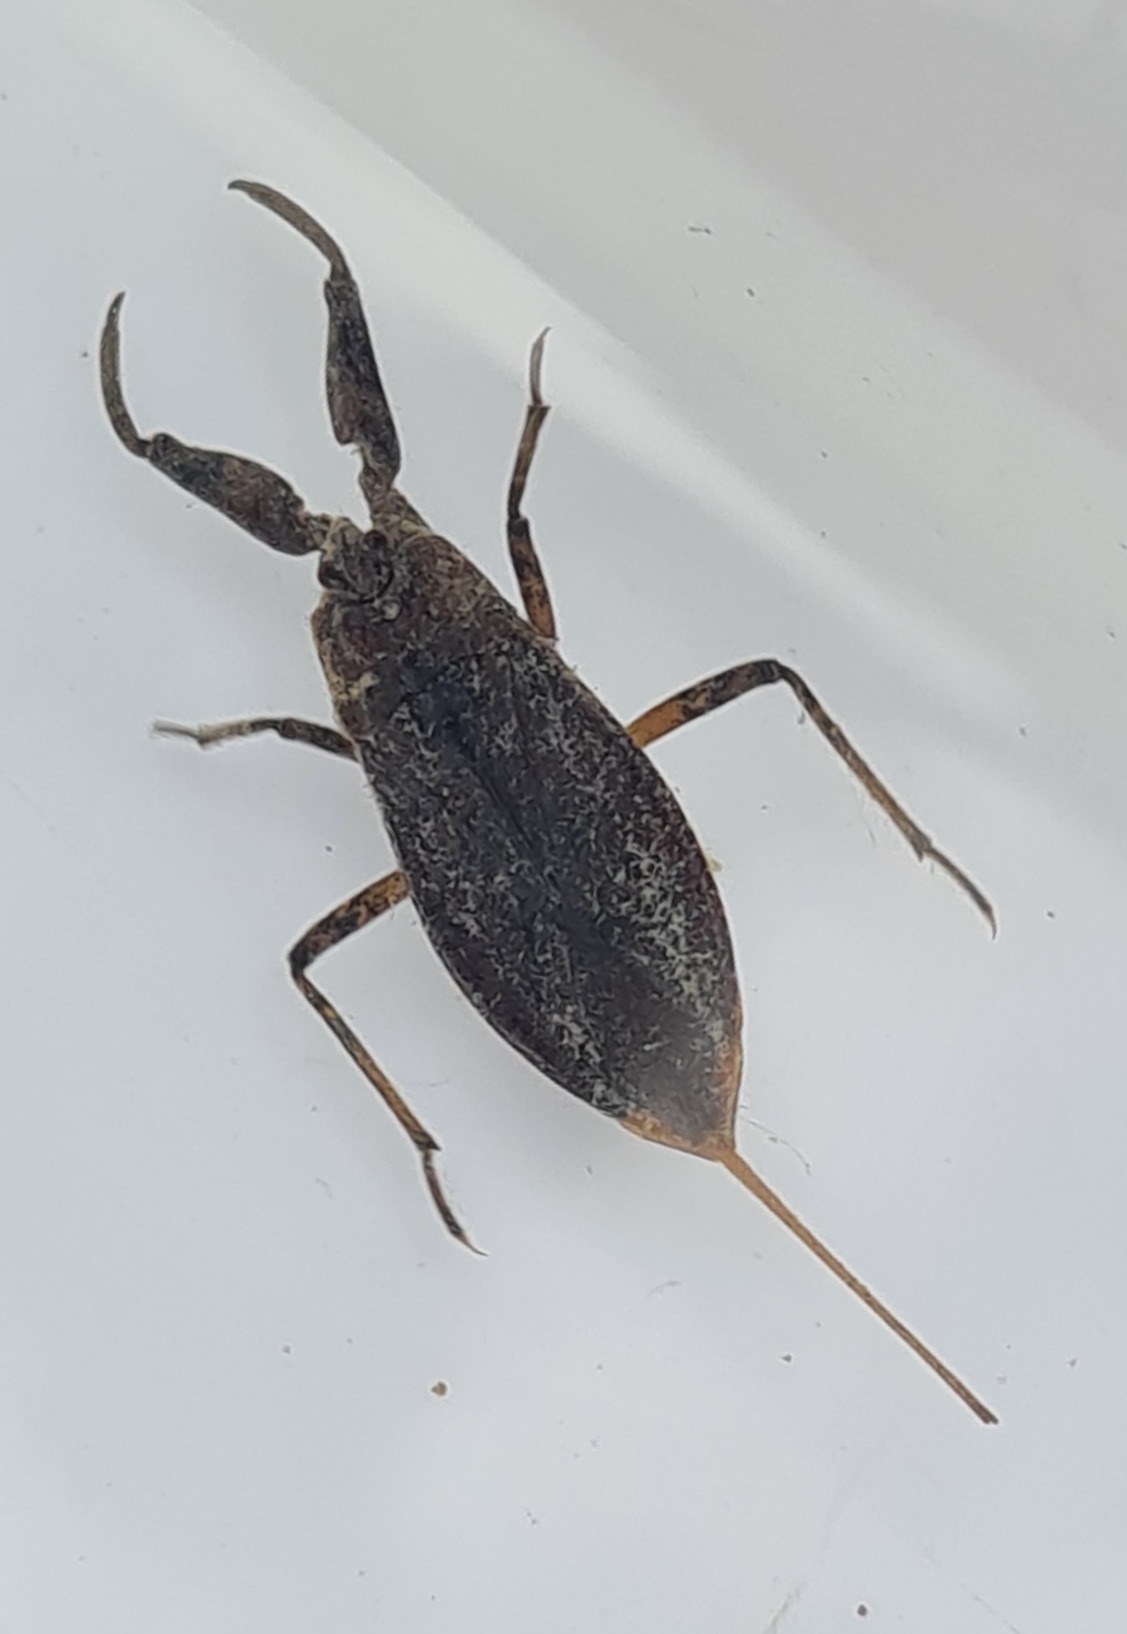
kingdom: Animalia
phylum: Arthropoda
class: Insecta
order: Hemiptera
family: Nepidae
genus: Nepa
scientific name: Nepa cinerea
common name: Skorpiontæge
